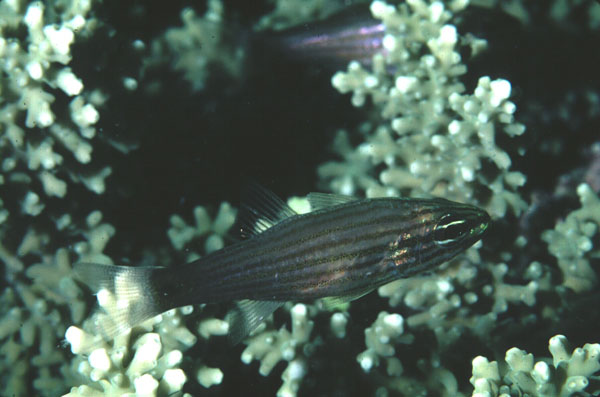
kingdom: Animalia
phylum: Chordata
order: Perciformes
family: Apogonidae
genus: Cheilodipterus
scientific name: Cheilodipterus artus
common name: Wolf cardinal
